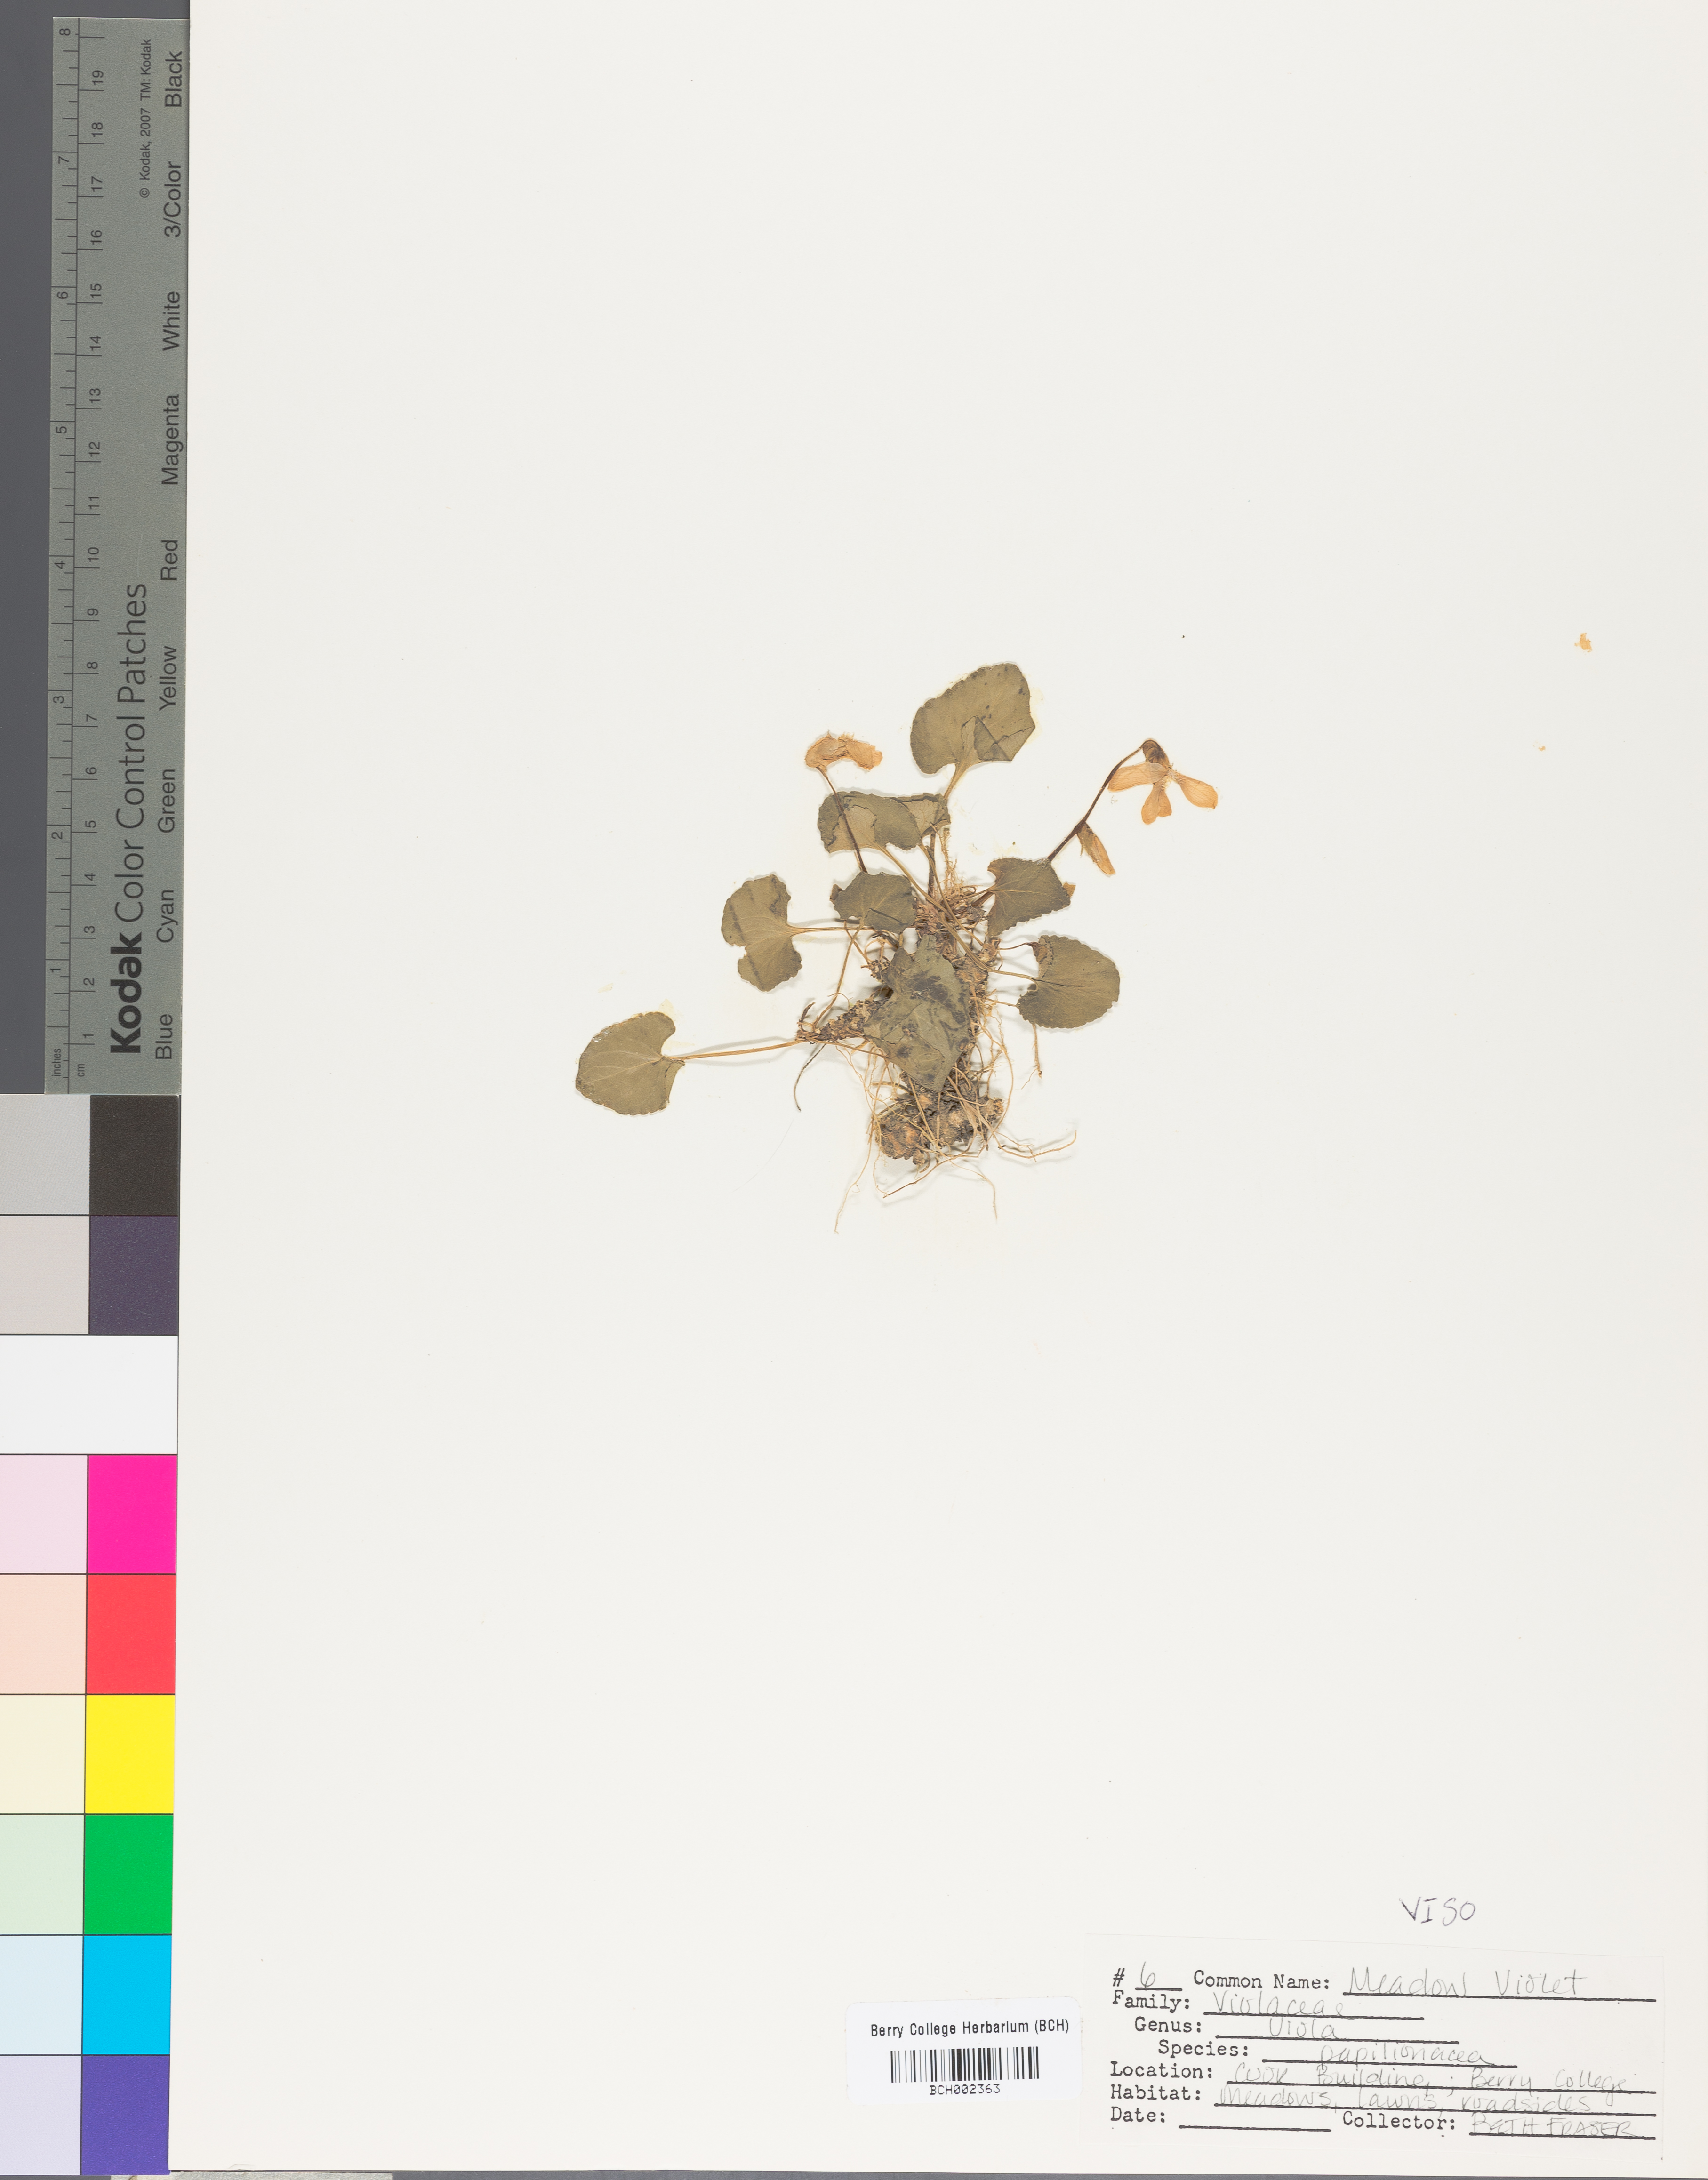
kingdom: Plantae
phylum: Tracheophyta
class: Magnoliopsida
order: Malpighiales
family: Violaceae
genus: Viola
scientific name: Viola sororia
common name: Dooryard violet
